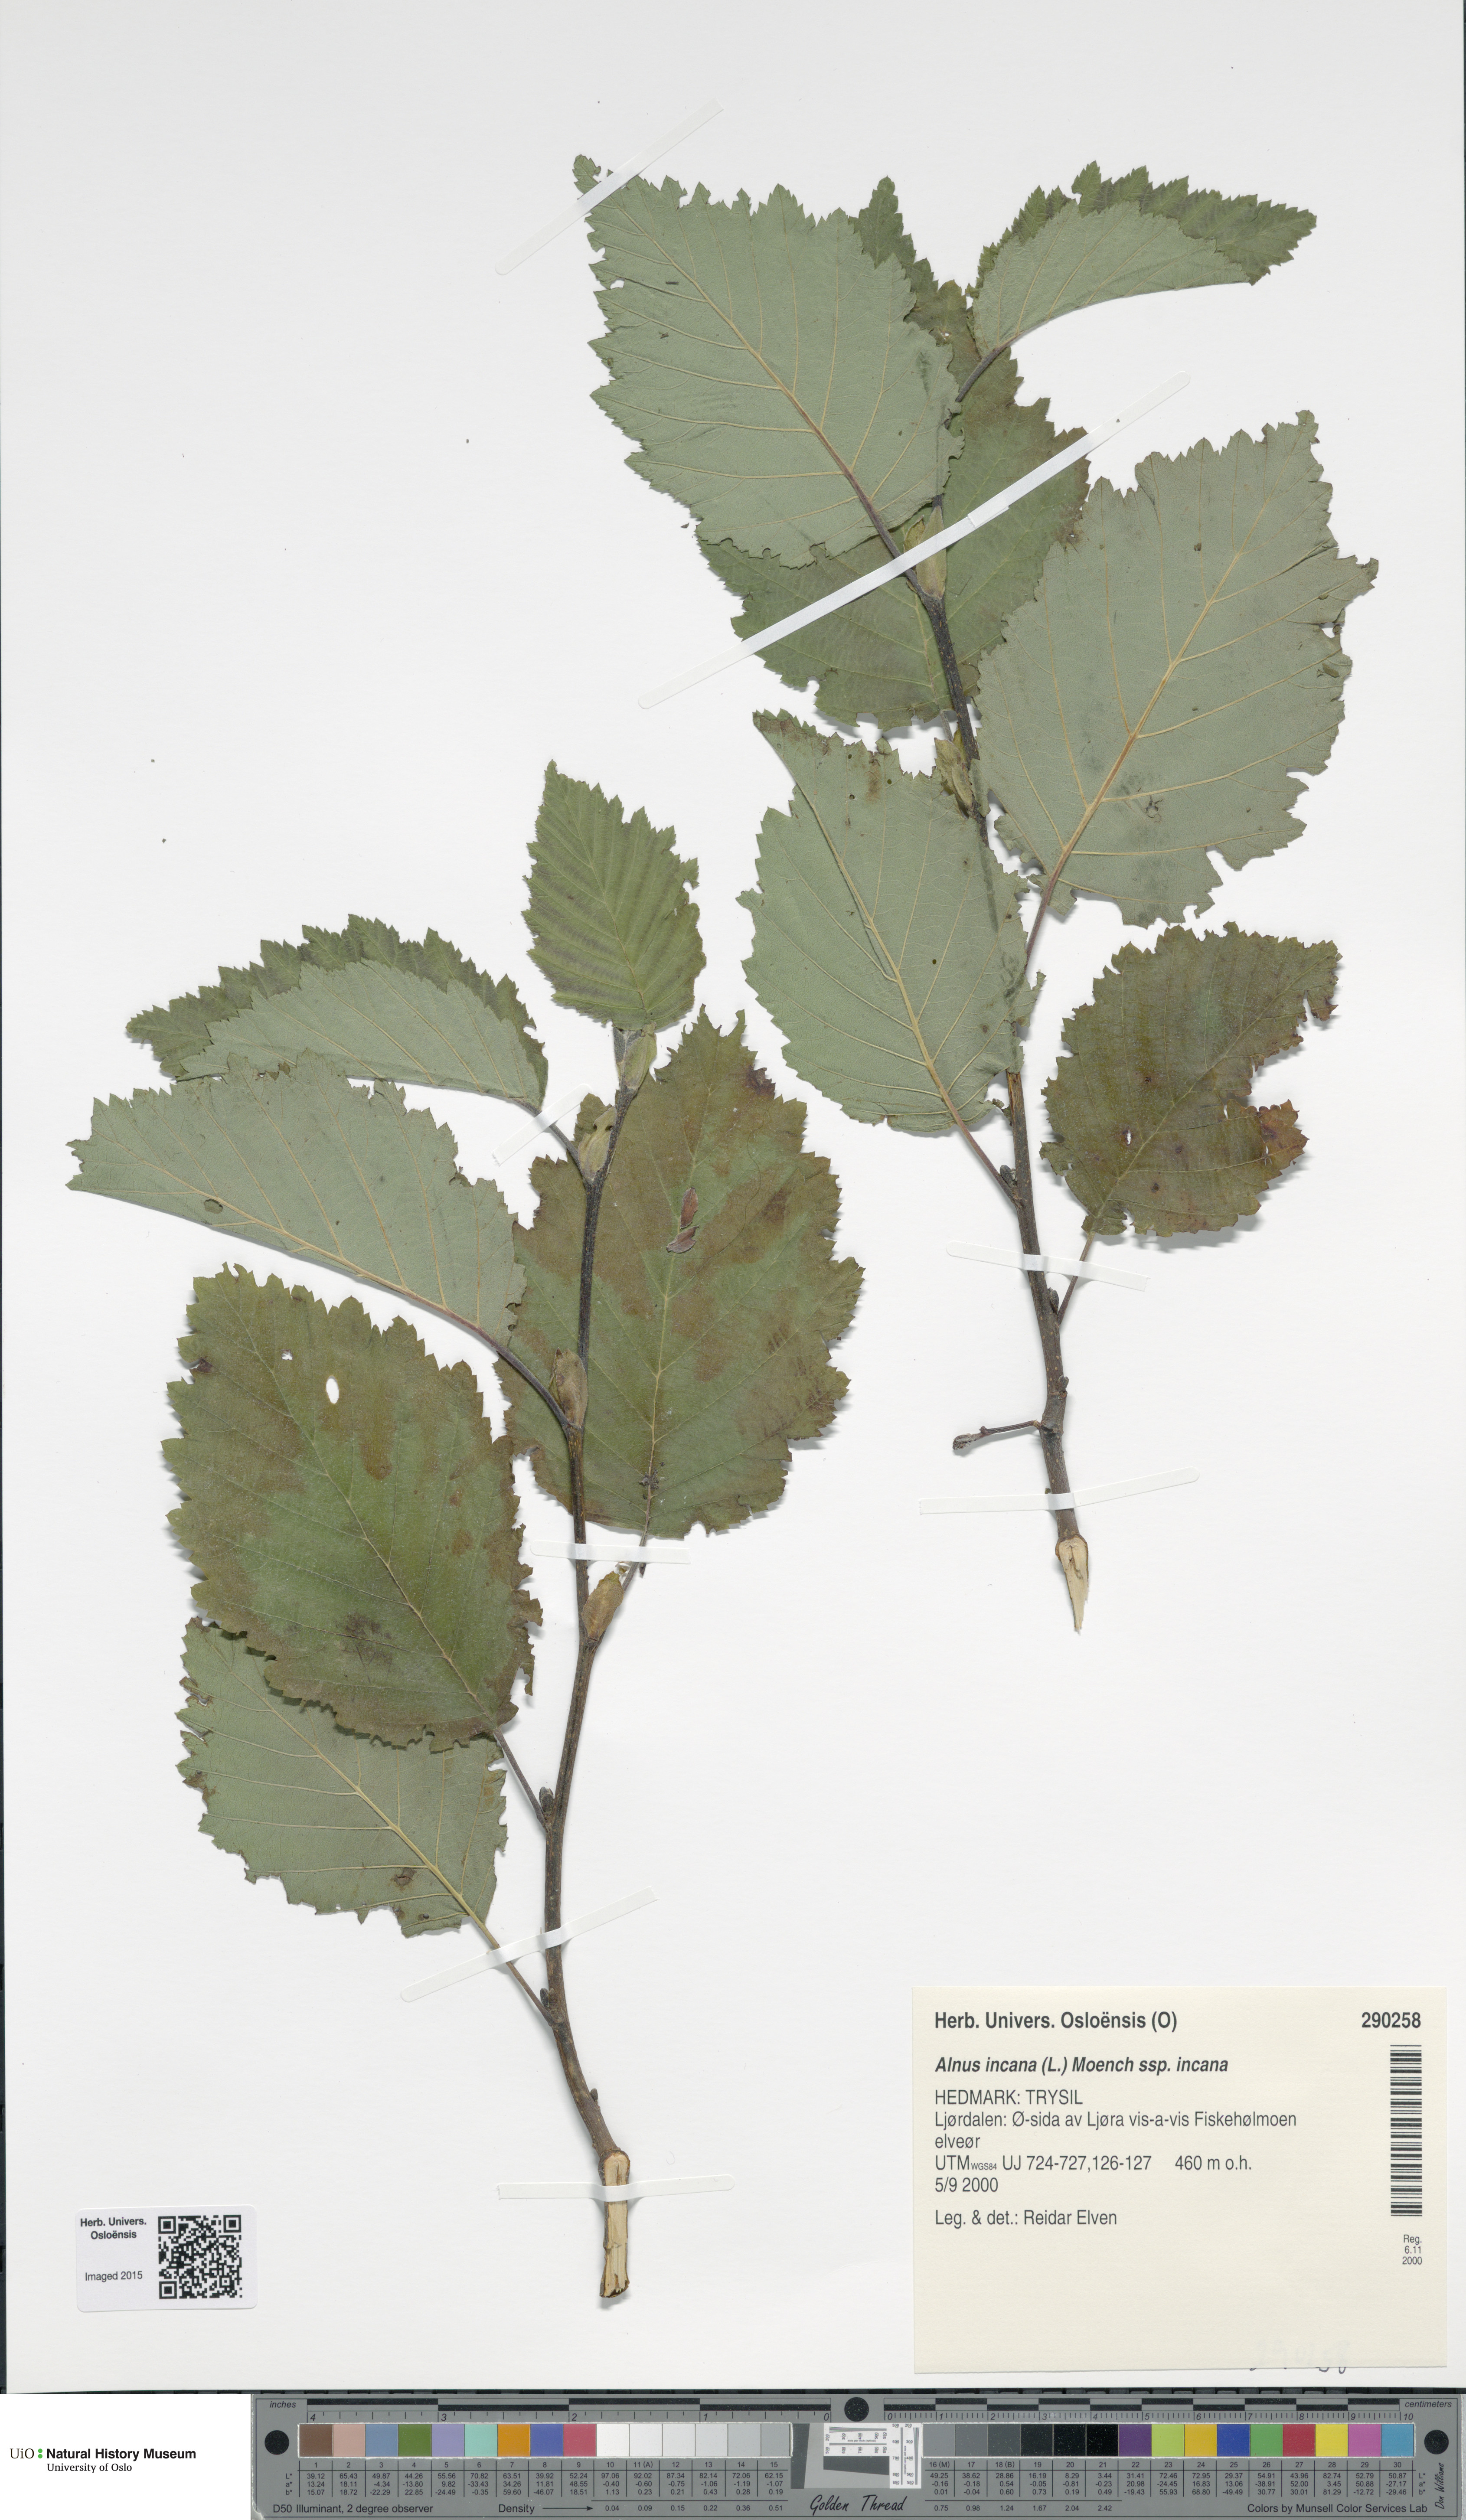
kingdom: Plantae
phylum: Tracheophyta
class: Magnoliopsida
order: Fagales
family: Betulaceae
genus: Alnus
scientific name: Alnus incana
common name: Grey alder
